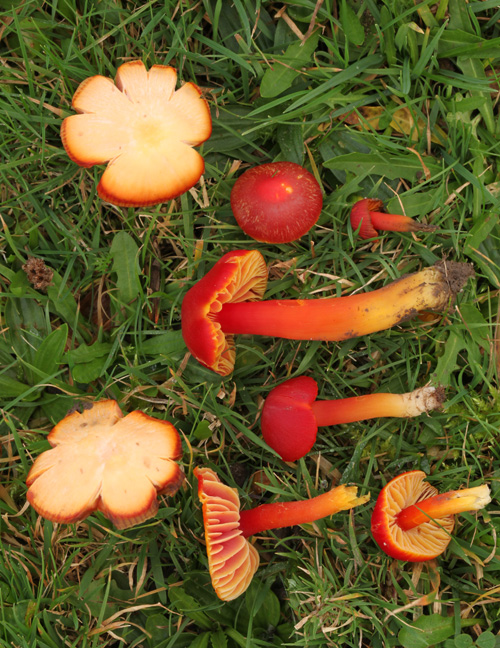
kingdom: Fungi
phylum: Basidiomycota
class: Agaricomycetes
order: Agaricales
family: Hygrophoraceae
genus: Hygrocybe
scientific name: Hygrocybe coccinea
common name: cinnober-vokshat
